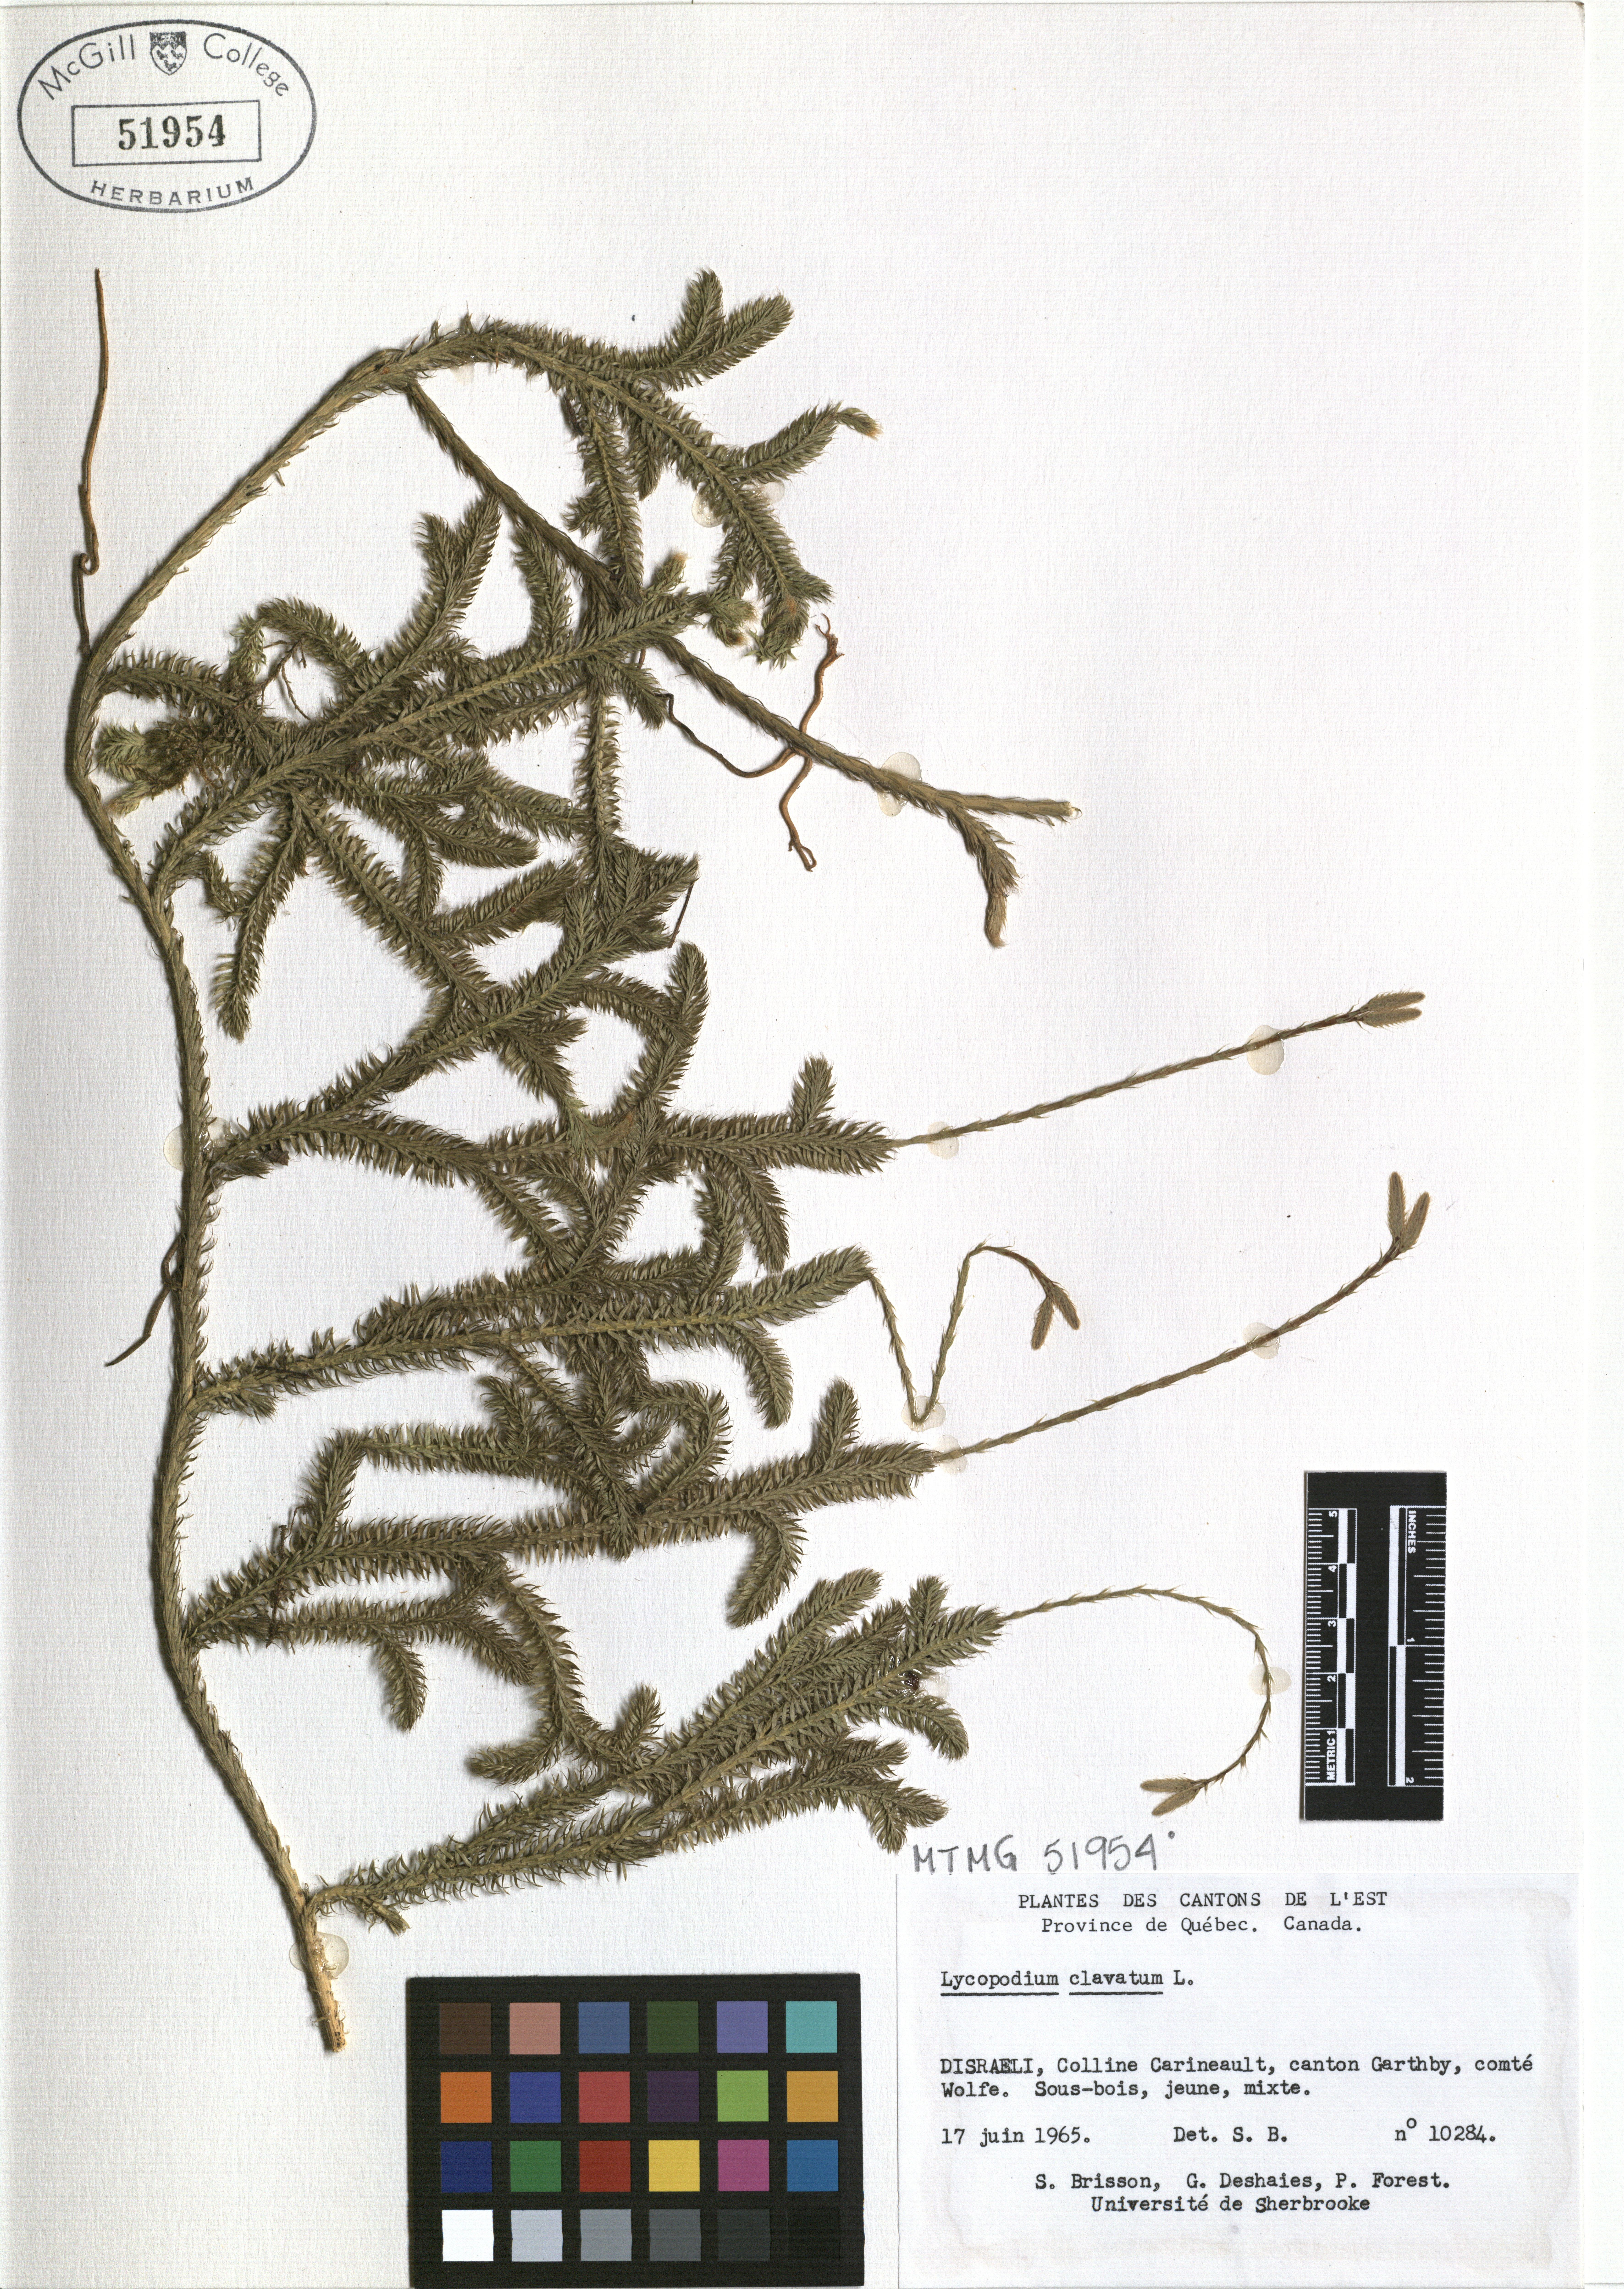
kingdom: Plantae
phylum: Tracheophyta
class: Lycopodiopsida
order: Lycopodiales
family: Lycopodiaceae
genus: Lycopodium
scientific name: Lycopodium clavatum
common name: Stag's-horn clubmoss
